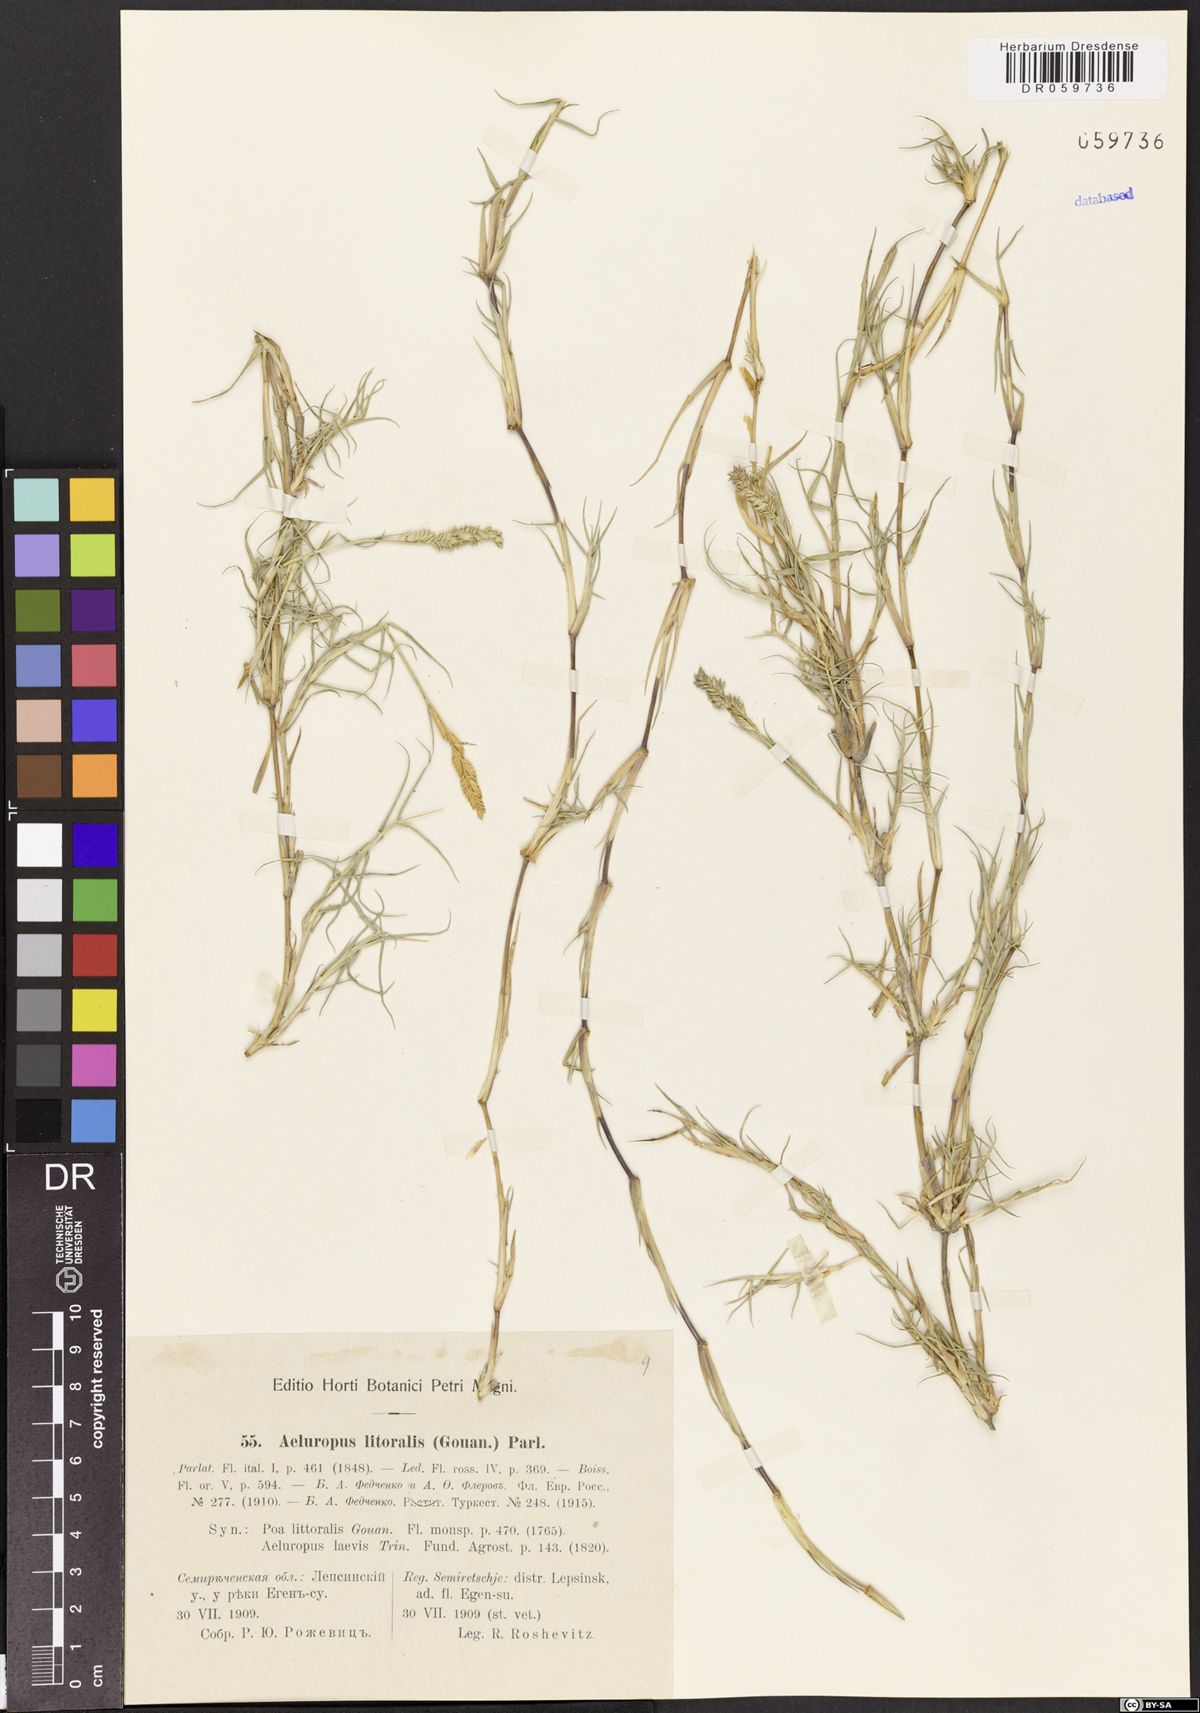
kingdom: Plantae
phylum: Tracheophyta
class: Liliopsida
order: Poales
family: Poaceae
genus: Aeluropus
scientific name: Aeluropus littoralis
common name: Indian walnut
